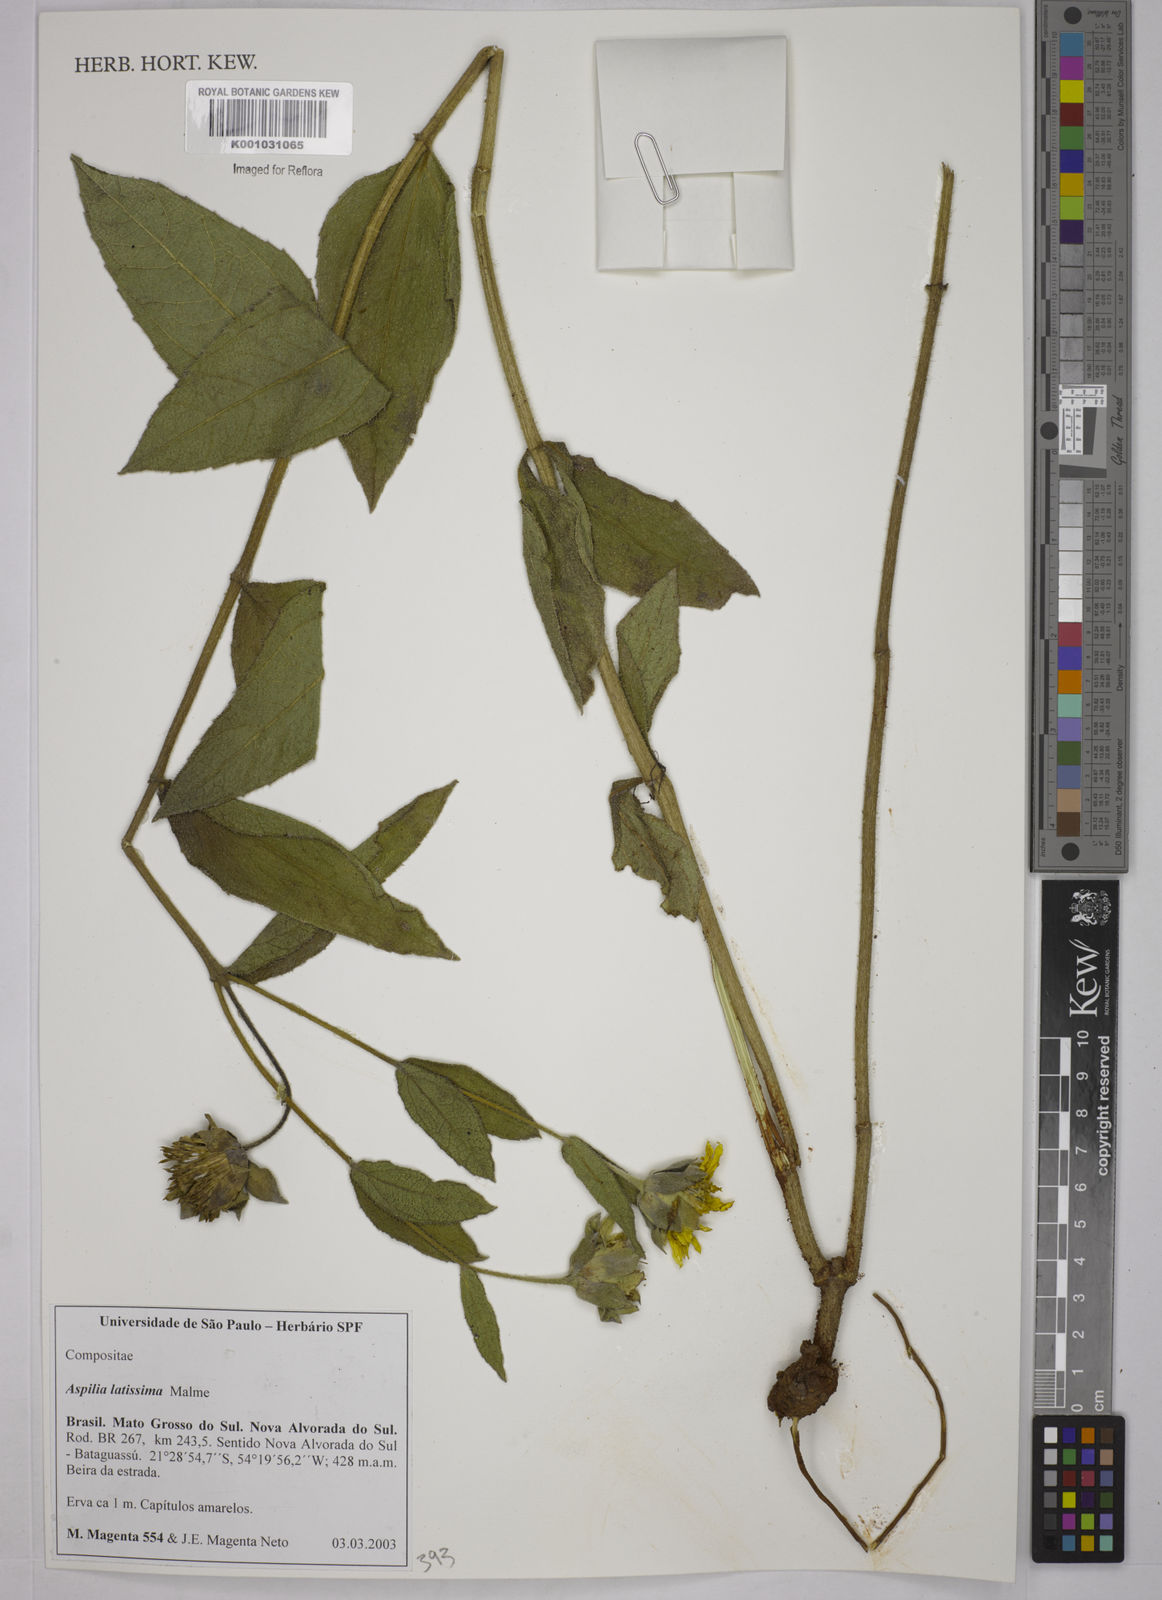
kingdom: Plantae
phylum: Tracheophyta
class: Magnoliopsida
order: Asterales
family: Asteraceae
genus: Aspilia
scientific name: Aspilia latissima
